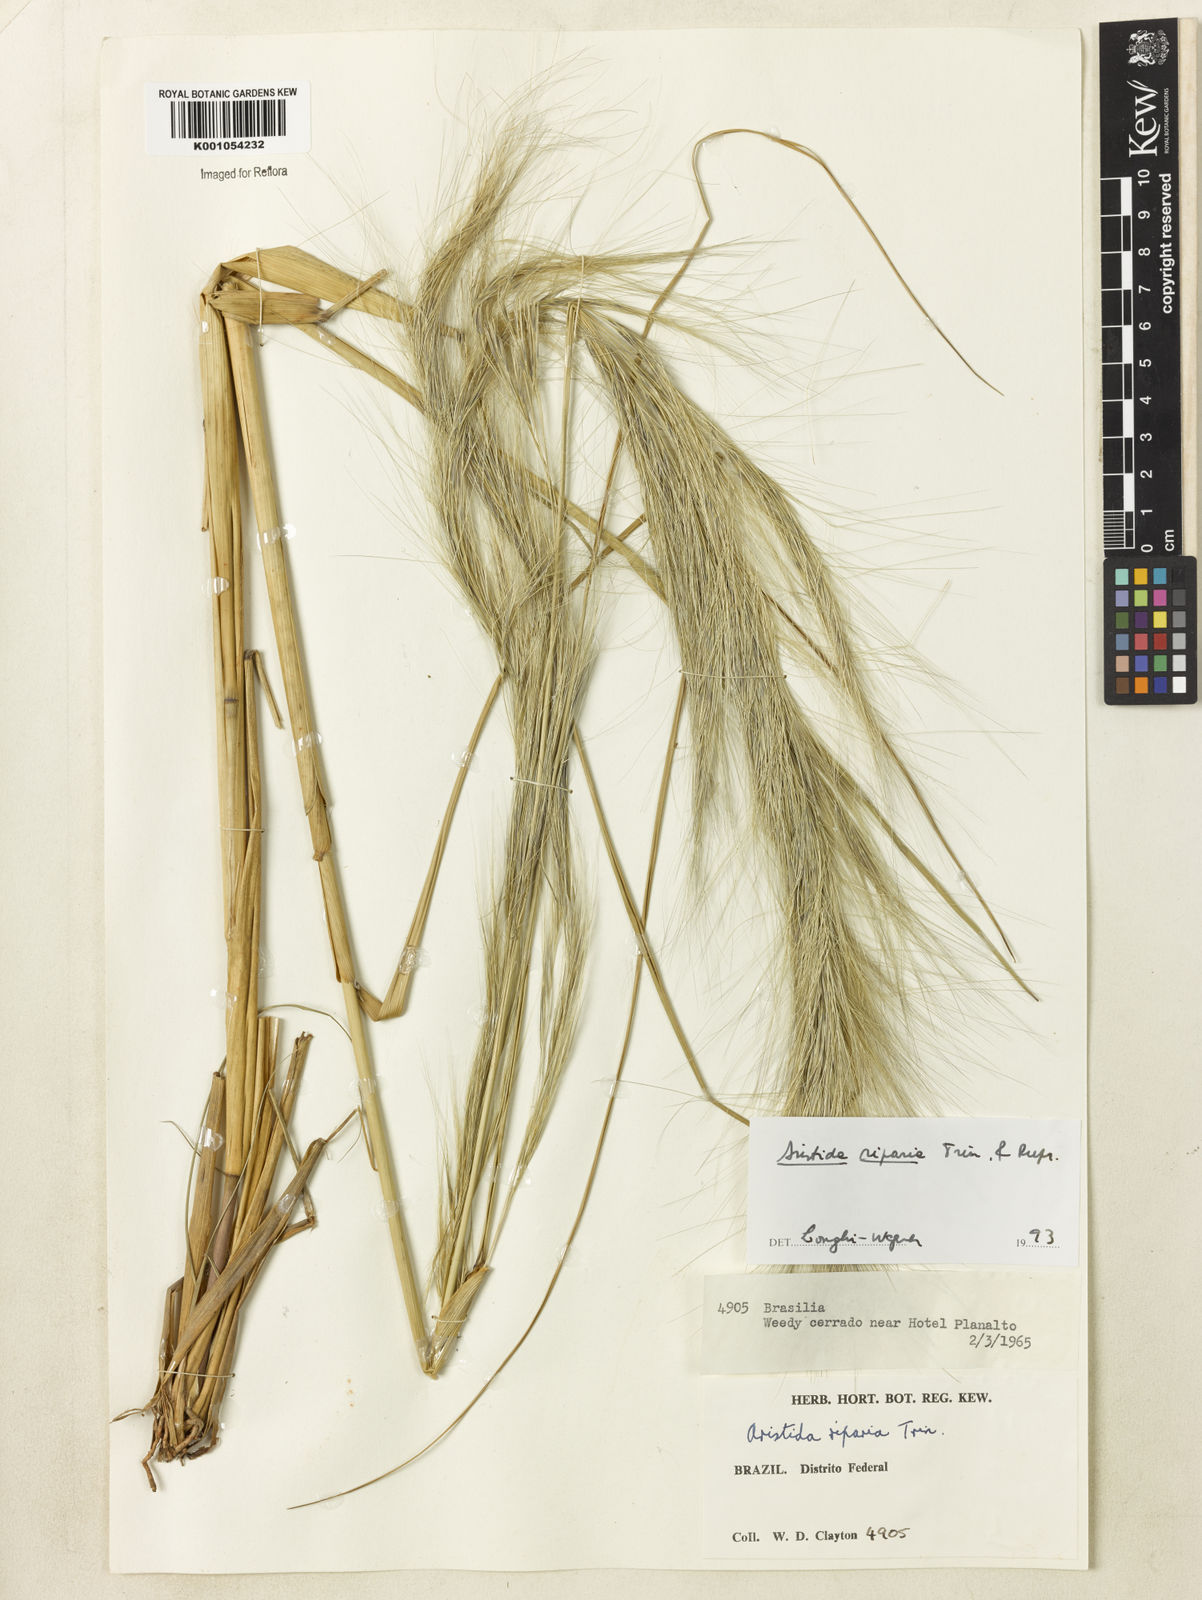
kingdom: Plantae
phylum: Tracheophyta
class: Liliopsida
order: Poales
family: Poaceae
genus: Aristida
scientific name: Aristida riparia
